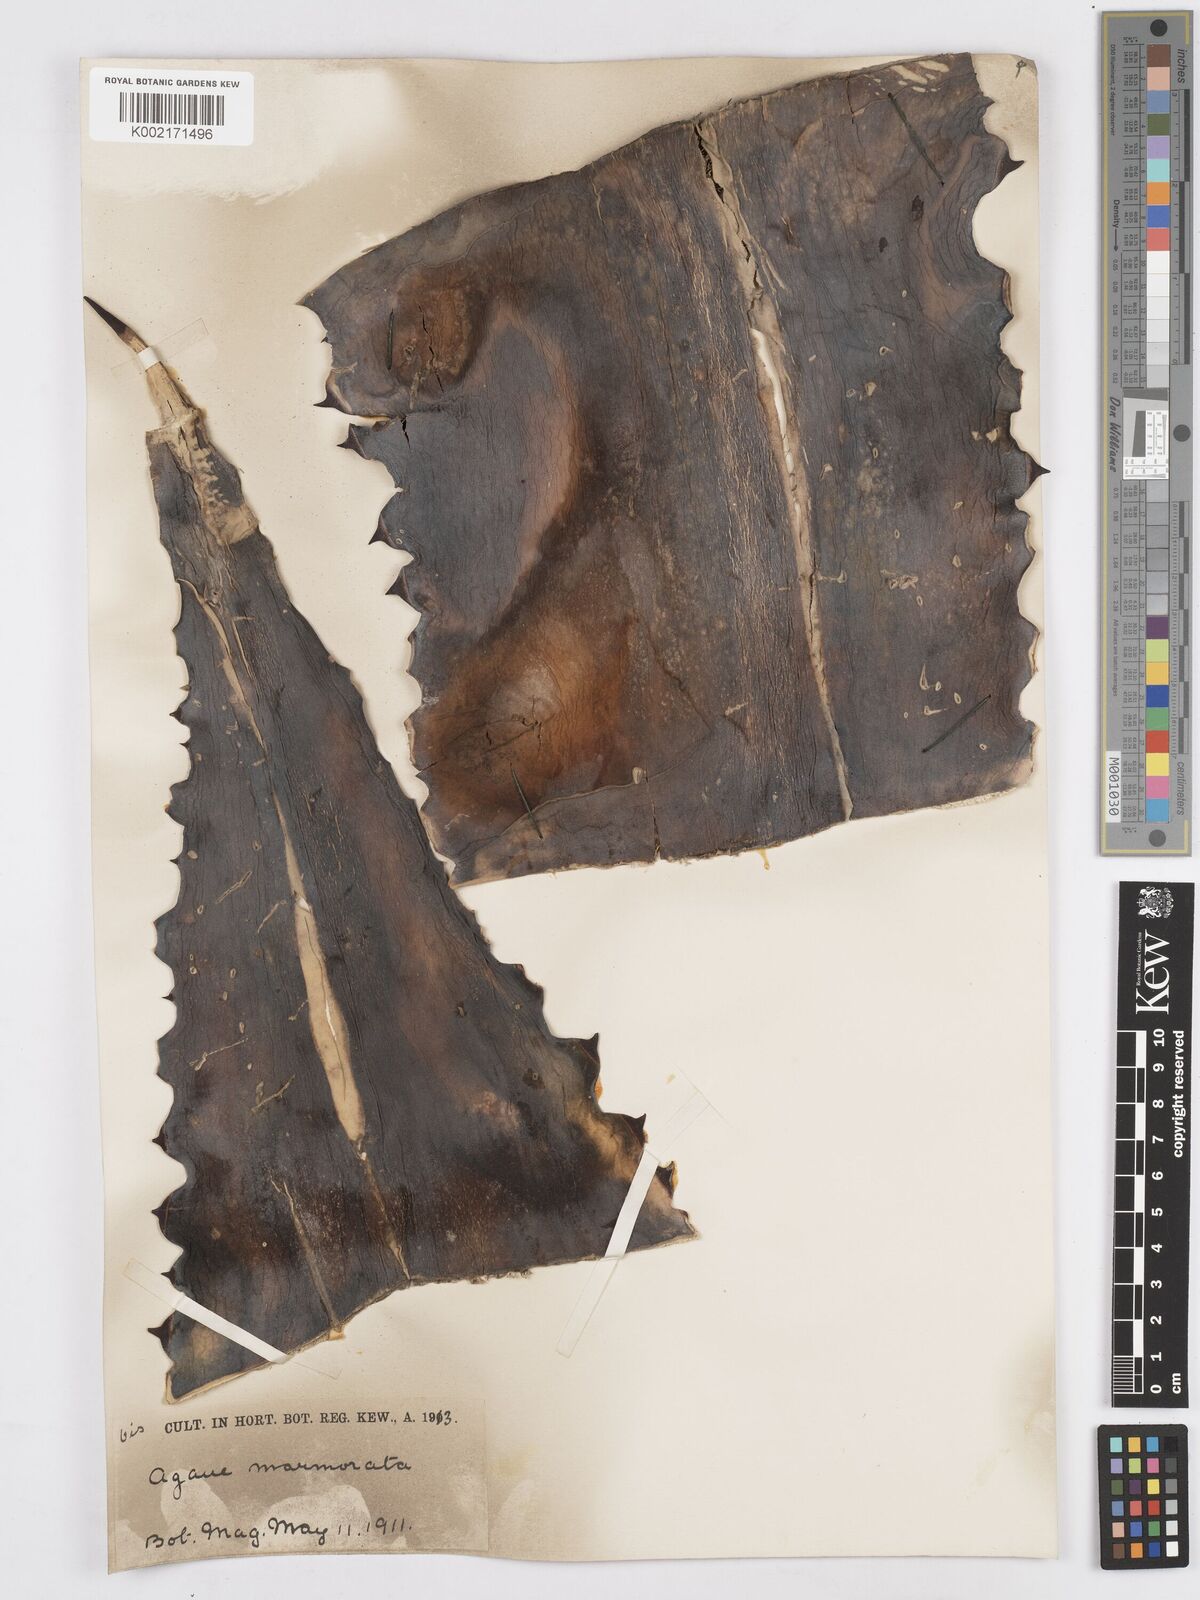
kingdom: Plantae
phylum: Tracheophyta
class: Liliopsida
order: Asparagales
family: Asparagaceae
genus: Agave
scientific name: Agave marmorata
